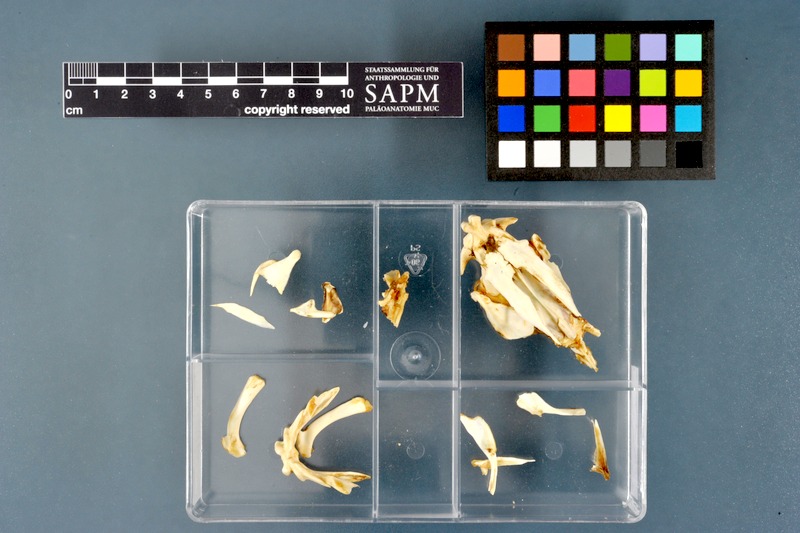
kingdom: Animalia
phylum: Chordata
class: Dipneusti
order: Ceratodontiformes
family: Protopteridae
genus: Protopterus
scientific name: Protopterus aethiopicus
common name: Marbled lungfish
